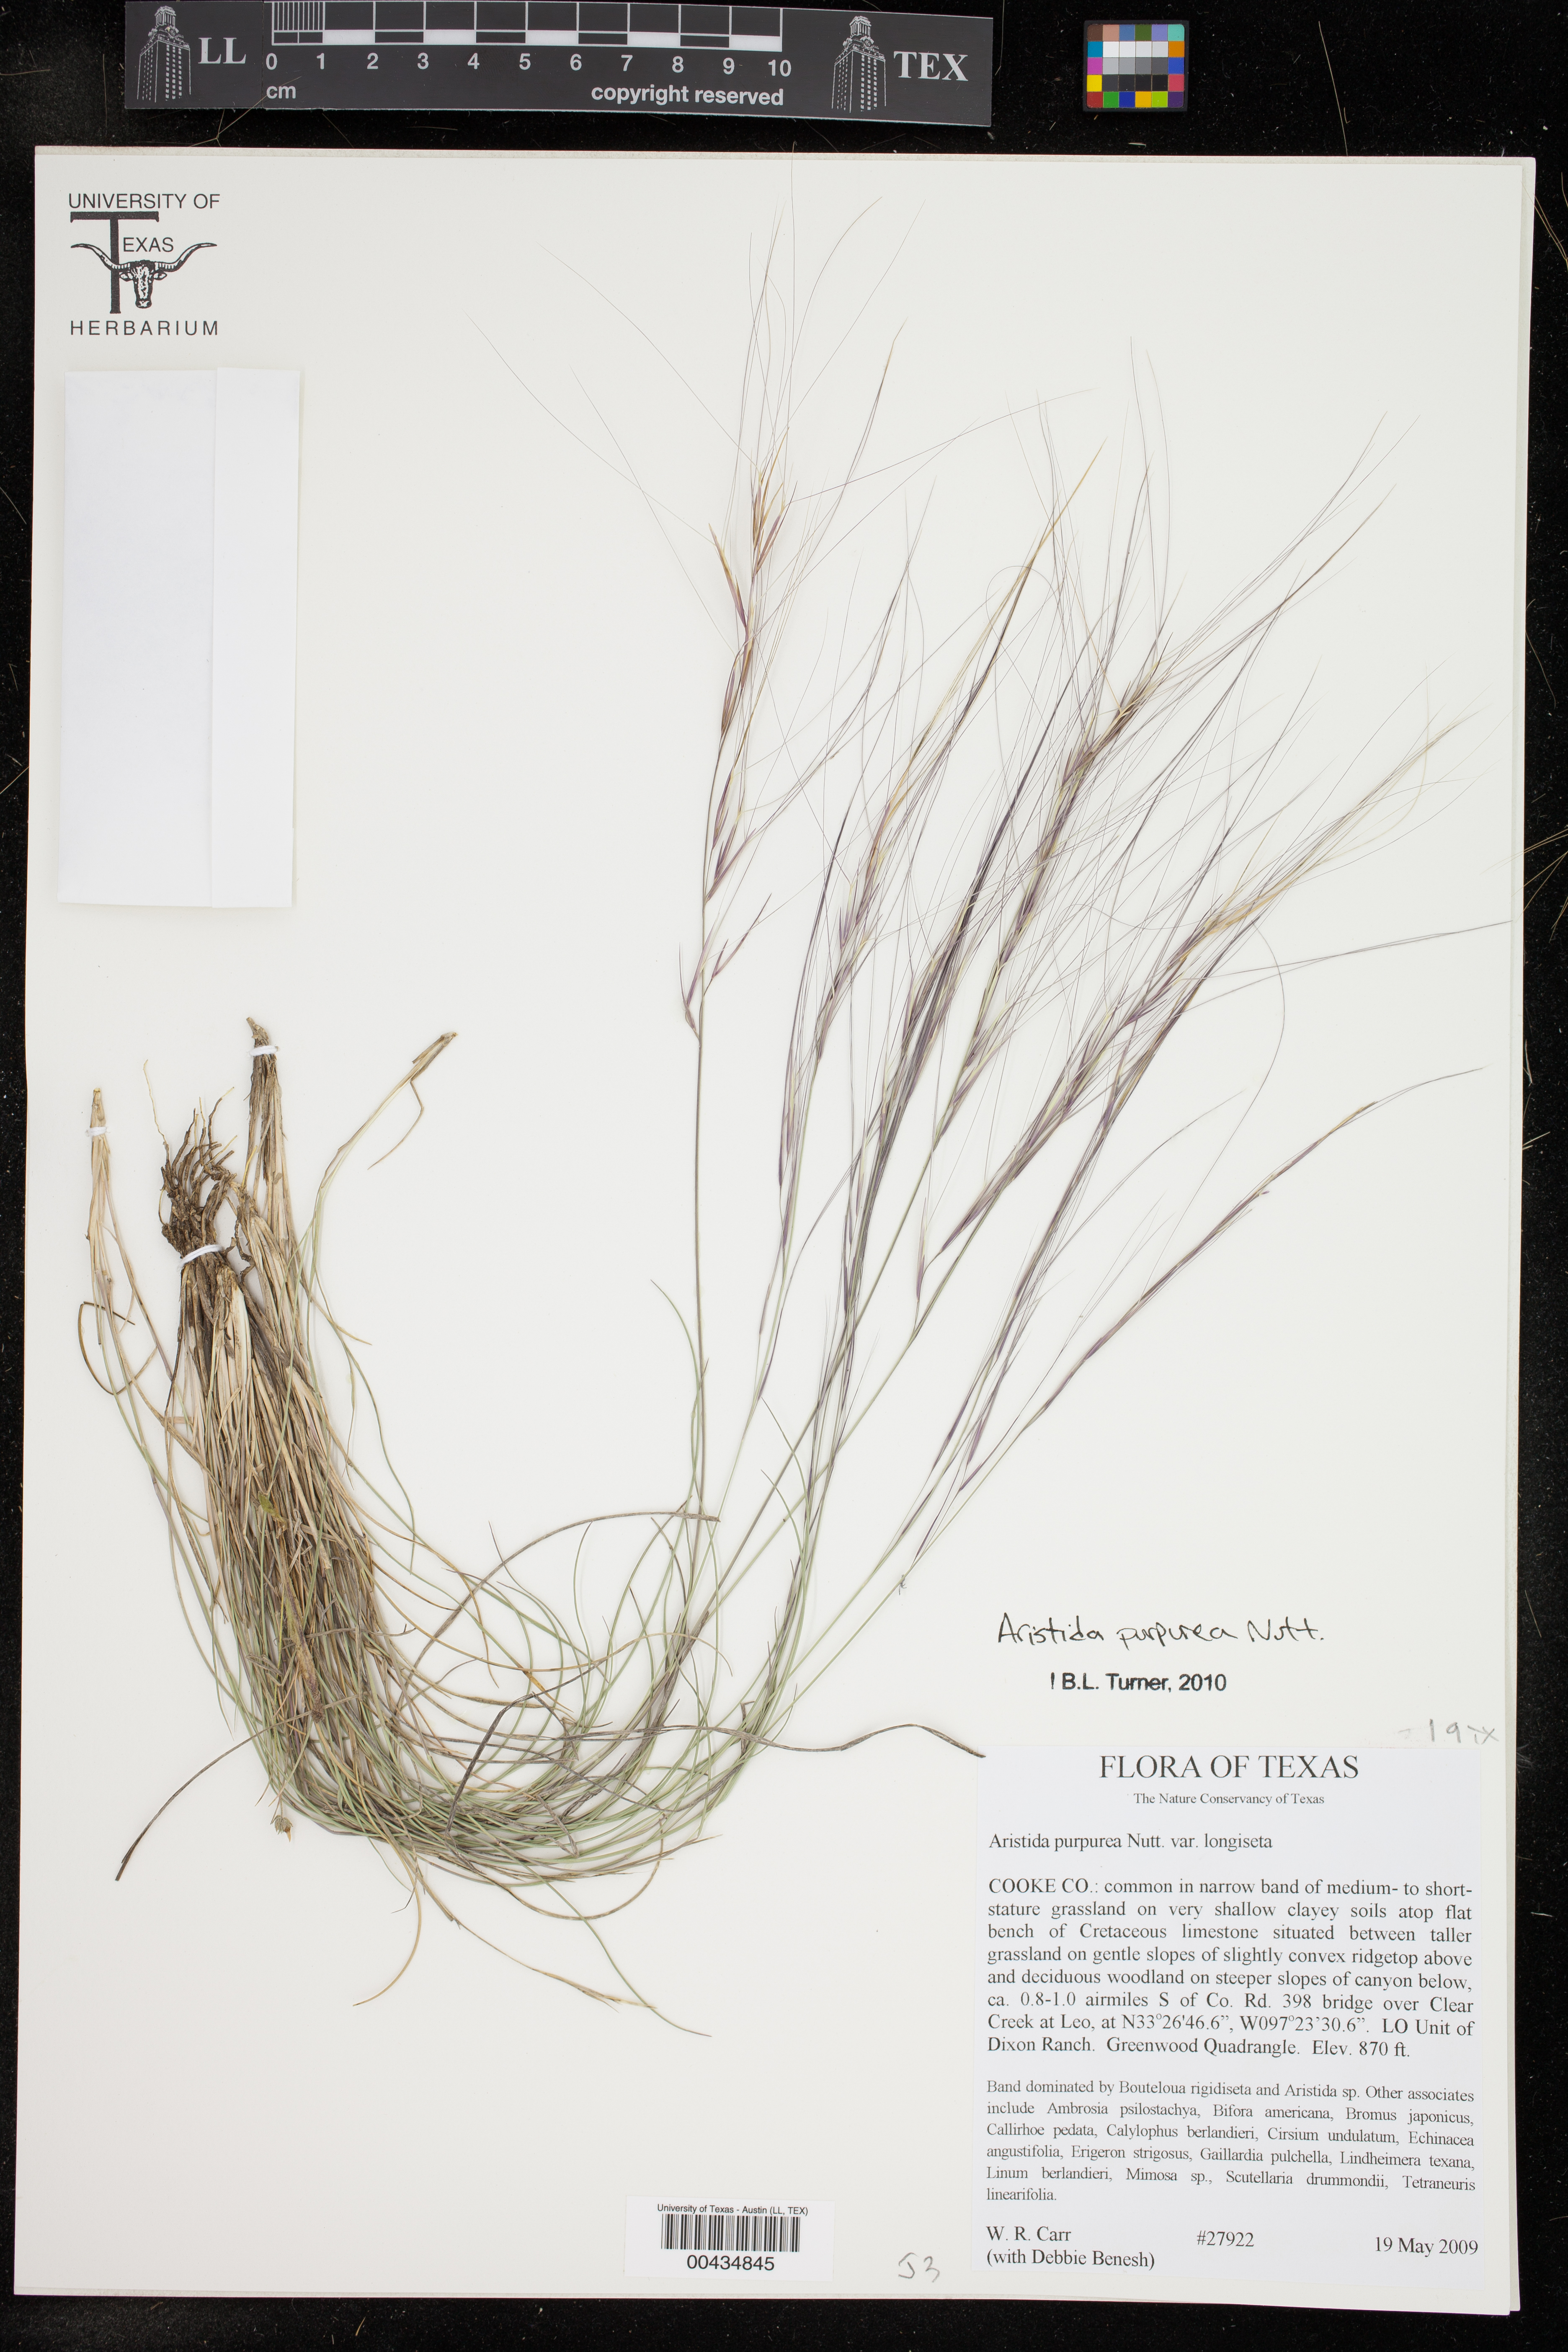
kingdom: Plantae
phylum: Tracheophyta
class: Liliopsida
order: Poales
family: Poaceae
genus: Aristida
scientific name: Aristida purpurea
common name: Purple threeawn
